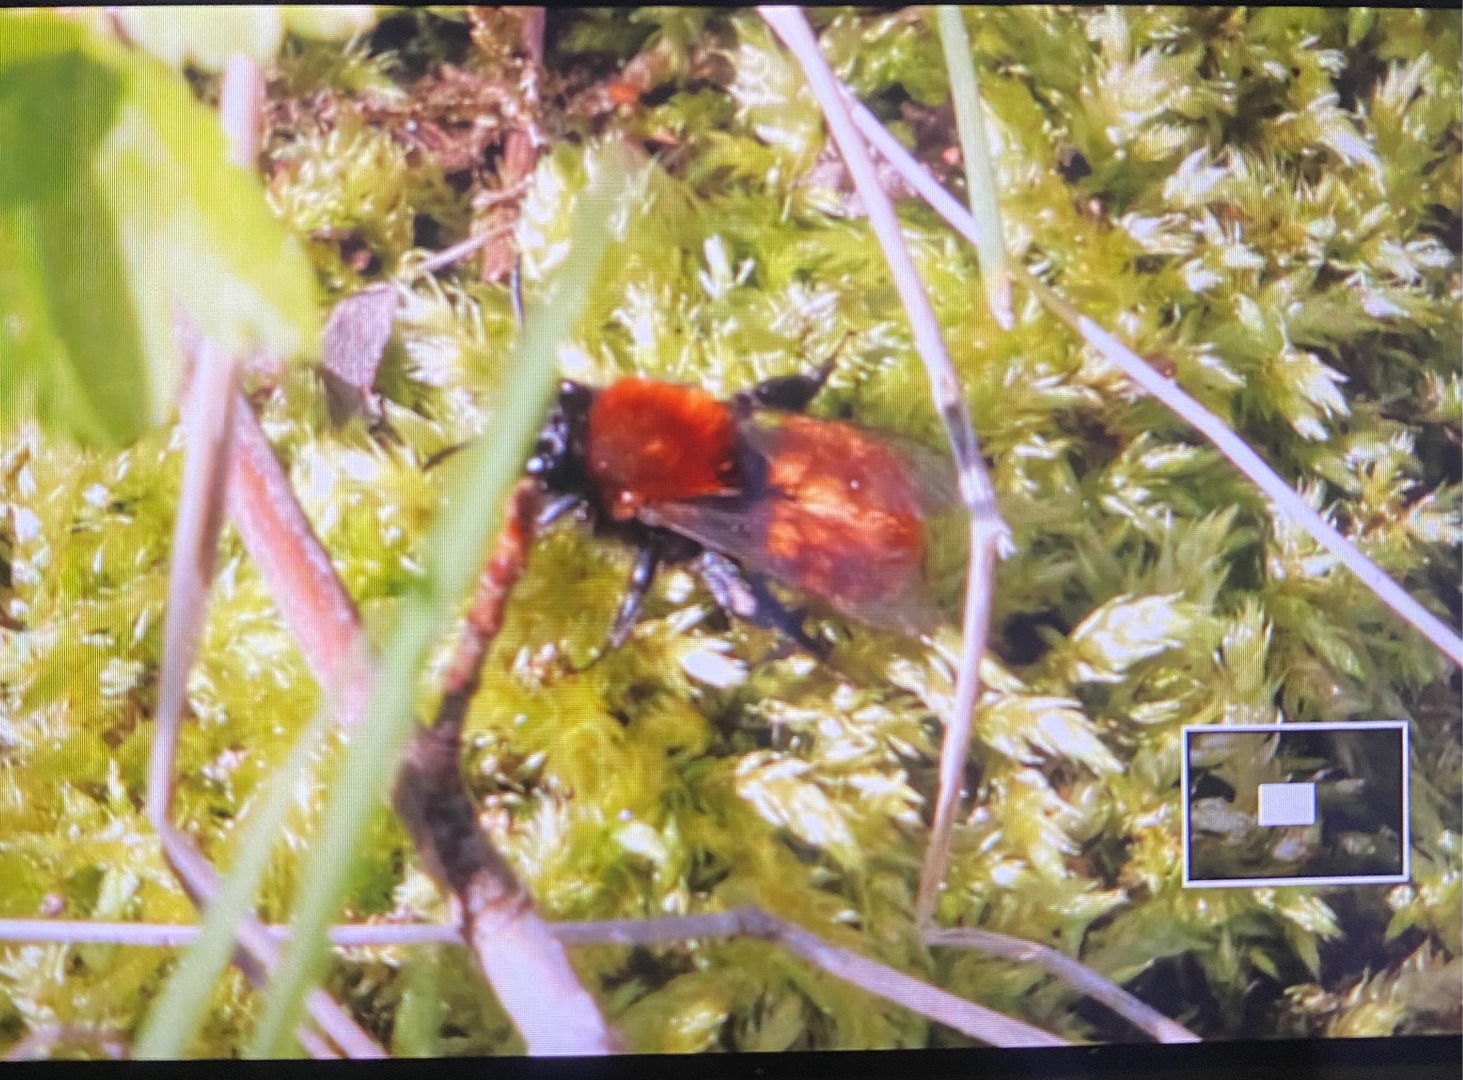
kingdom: Animalia
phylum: Arthropoda
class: Insecta
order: Hymenoptera
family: Andrenidae
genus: Andrena
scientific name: Andrena fulva
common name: Rødpelset jordbi
